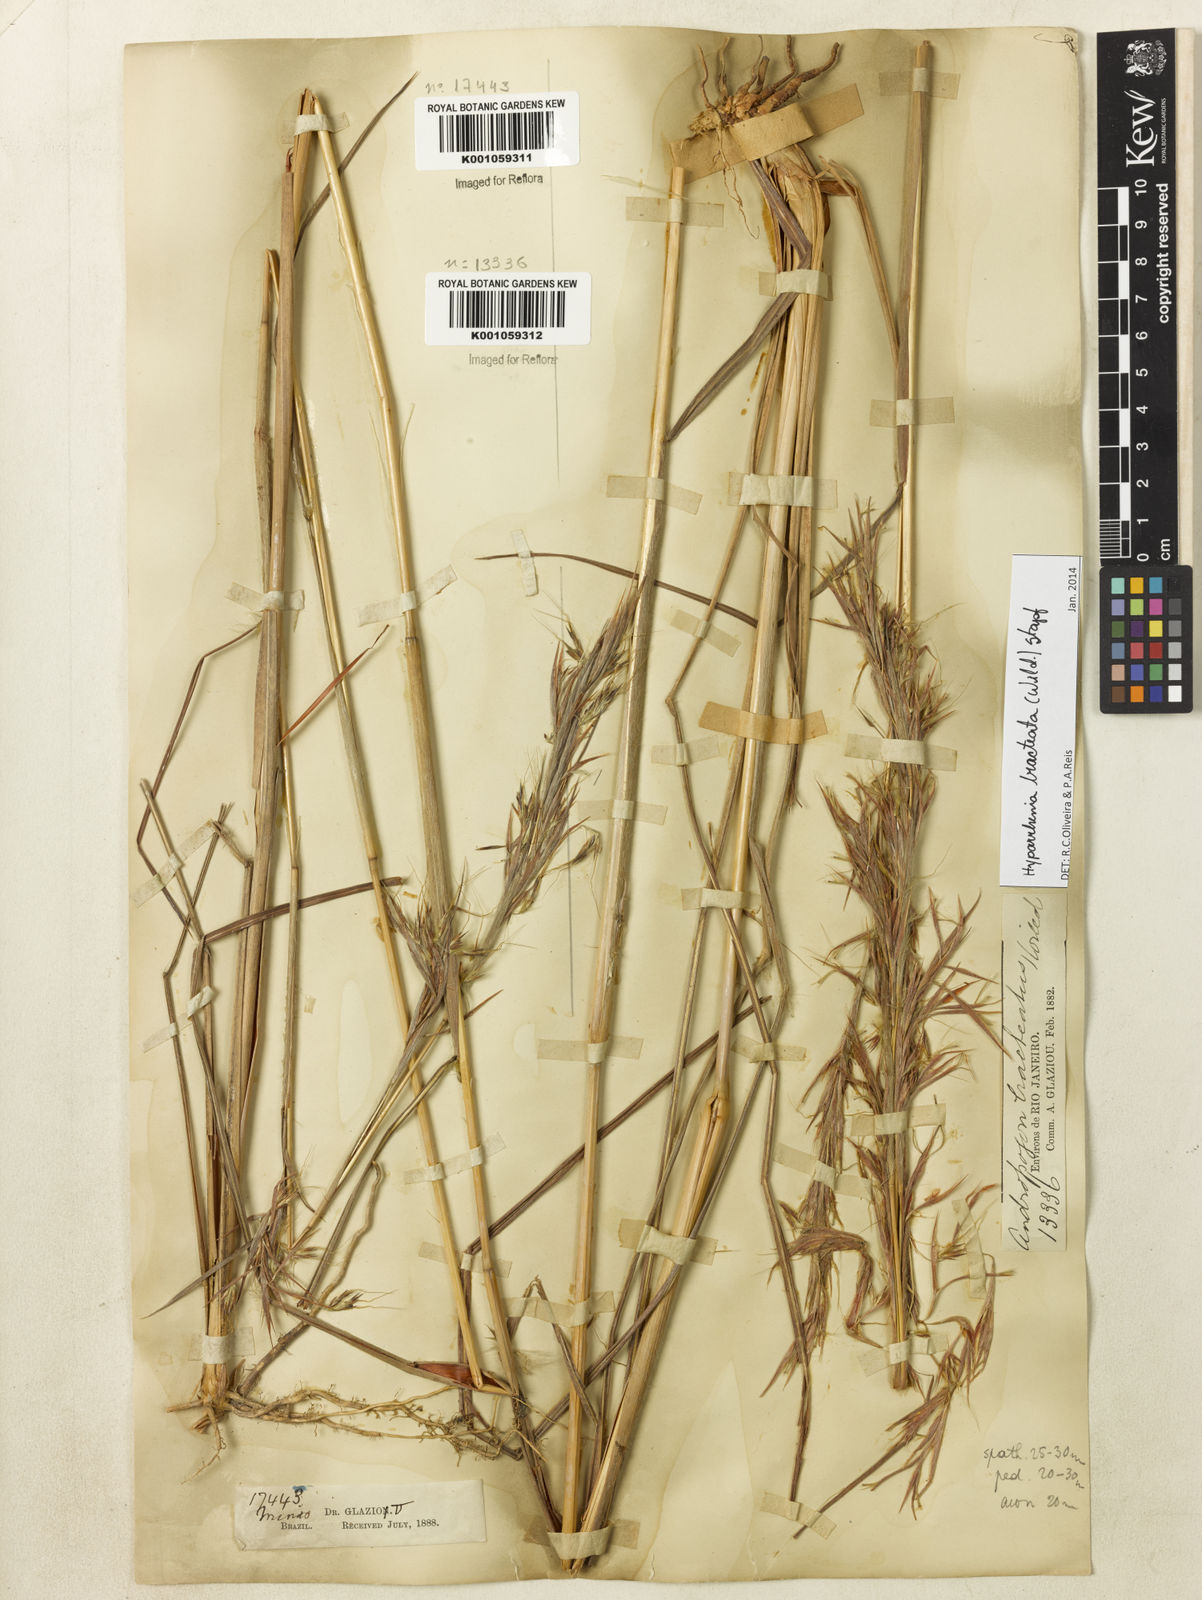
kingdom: Plantae
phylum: Tracheophyta
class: Liliopsida
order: Poales
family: Poaceae
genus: Hyparrhenia
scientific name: Hyparrhenia bracteata
